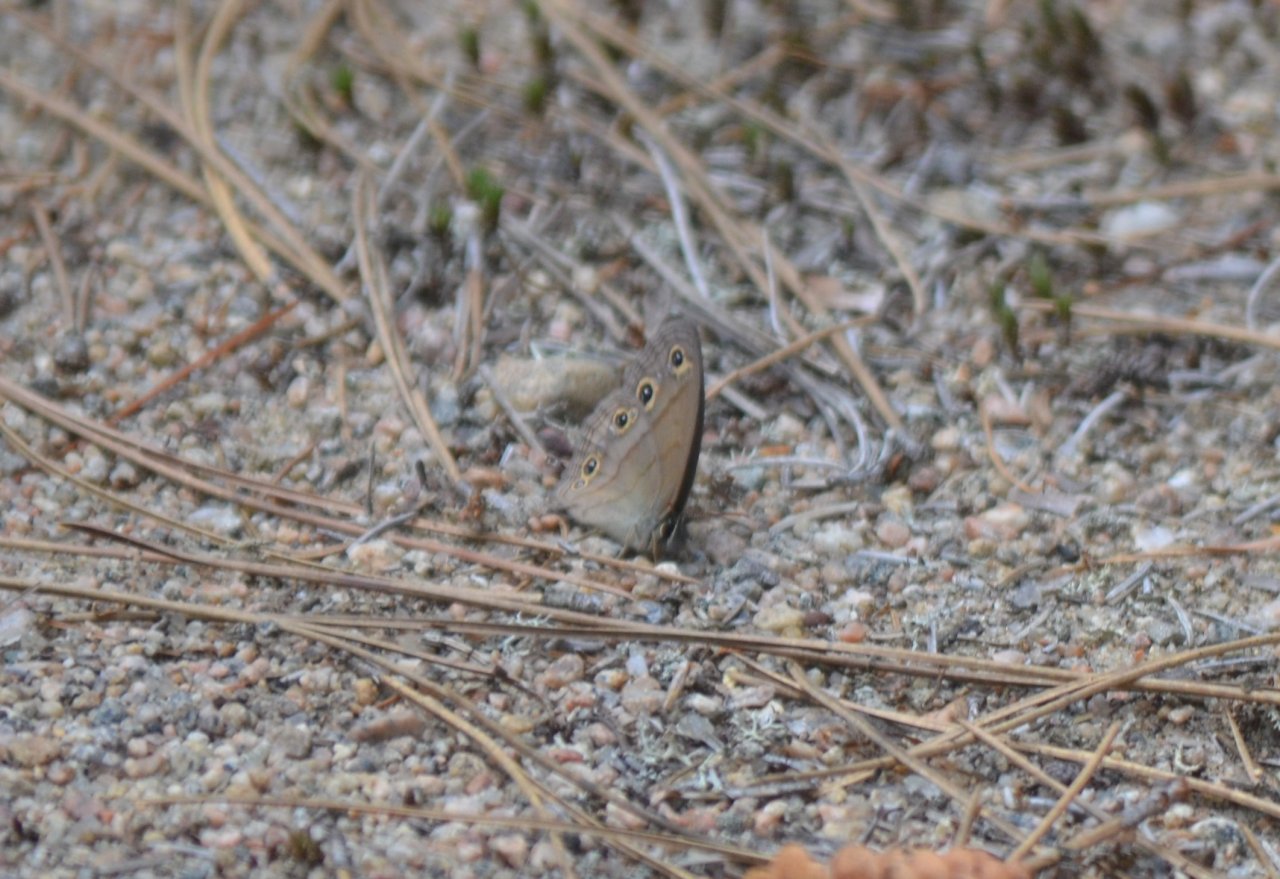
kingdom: Animalia
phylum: Arthropoda
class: Insecta
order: Lepidoptera
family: Nymphalidae
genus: Euptychia
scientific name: Euptychia cymela
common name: Little Wood Satyr
